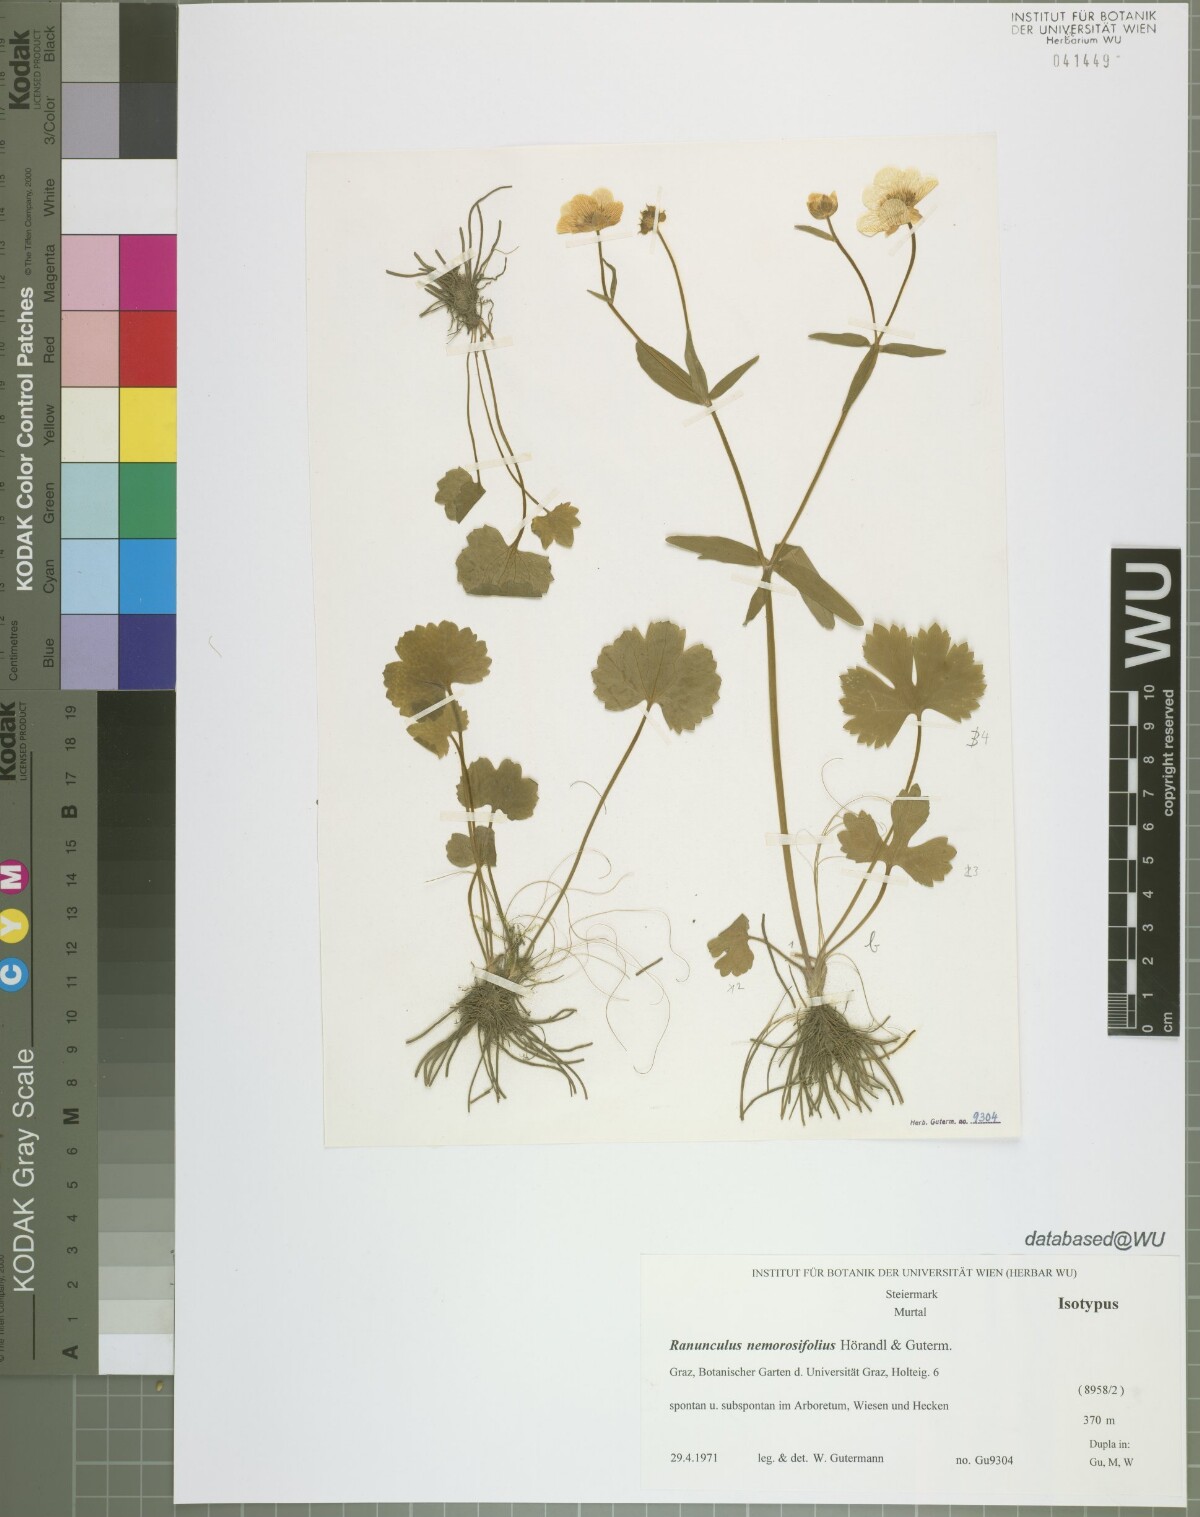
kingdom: Plantae
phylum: Tracheophyta
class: Magnoliopsida
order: Ranunculales
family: Ranunculaceae
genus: Ranunculus
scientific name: Ranunculus nemorosifolius
